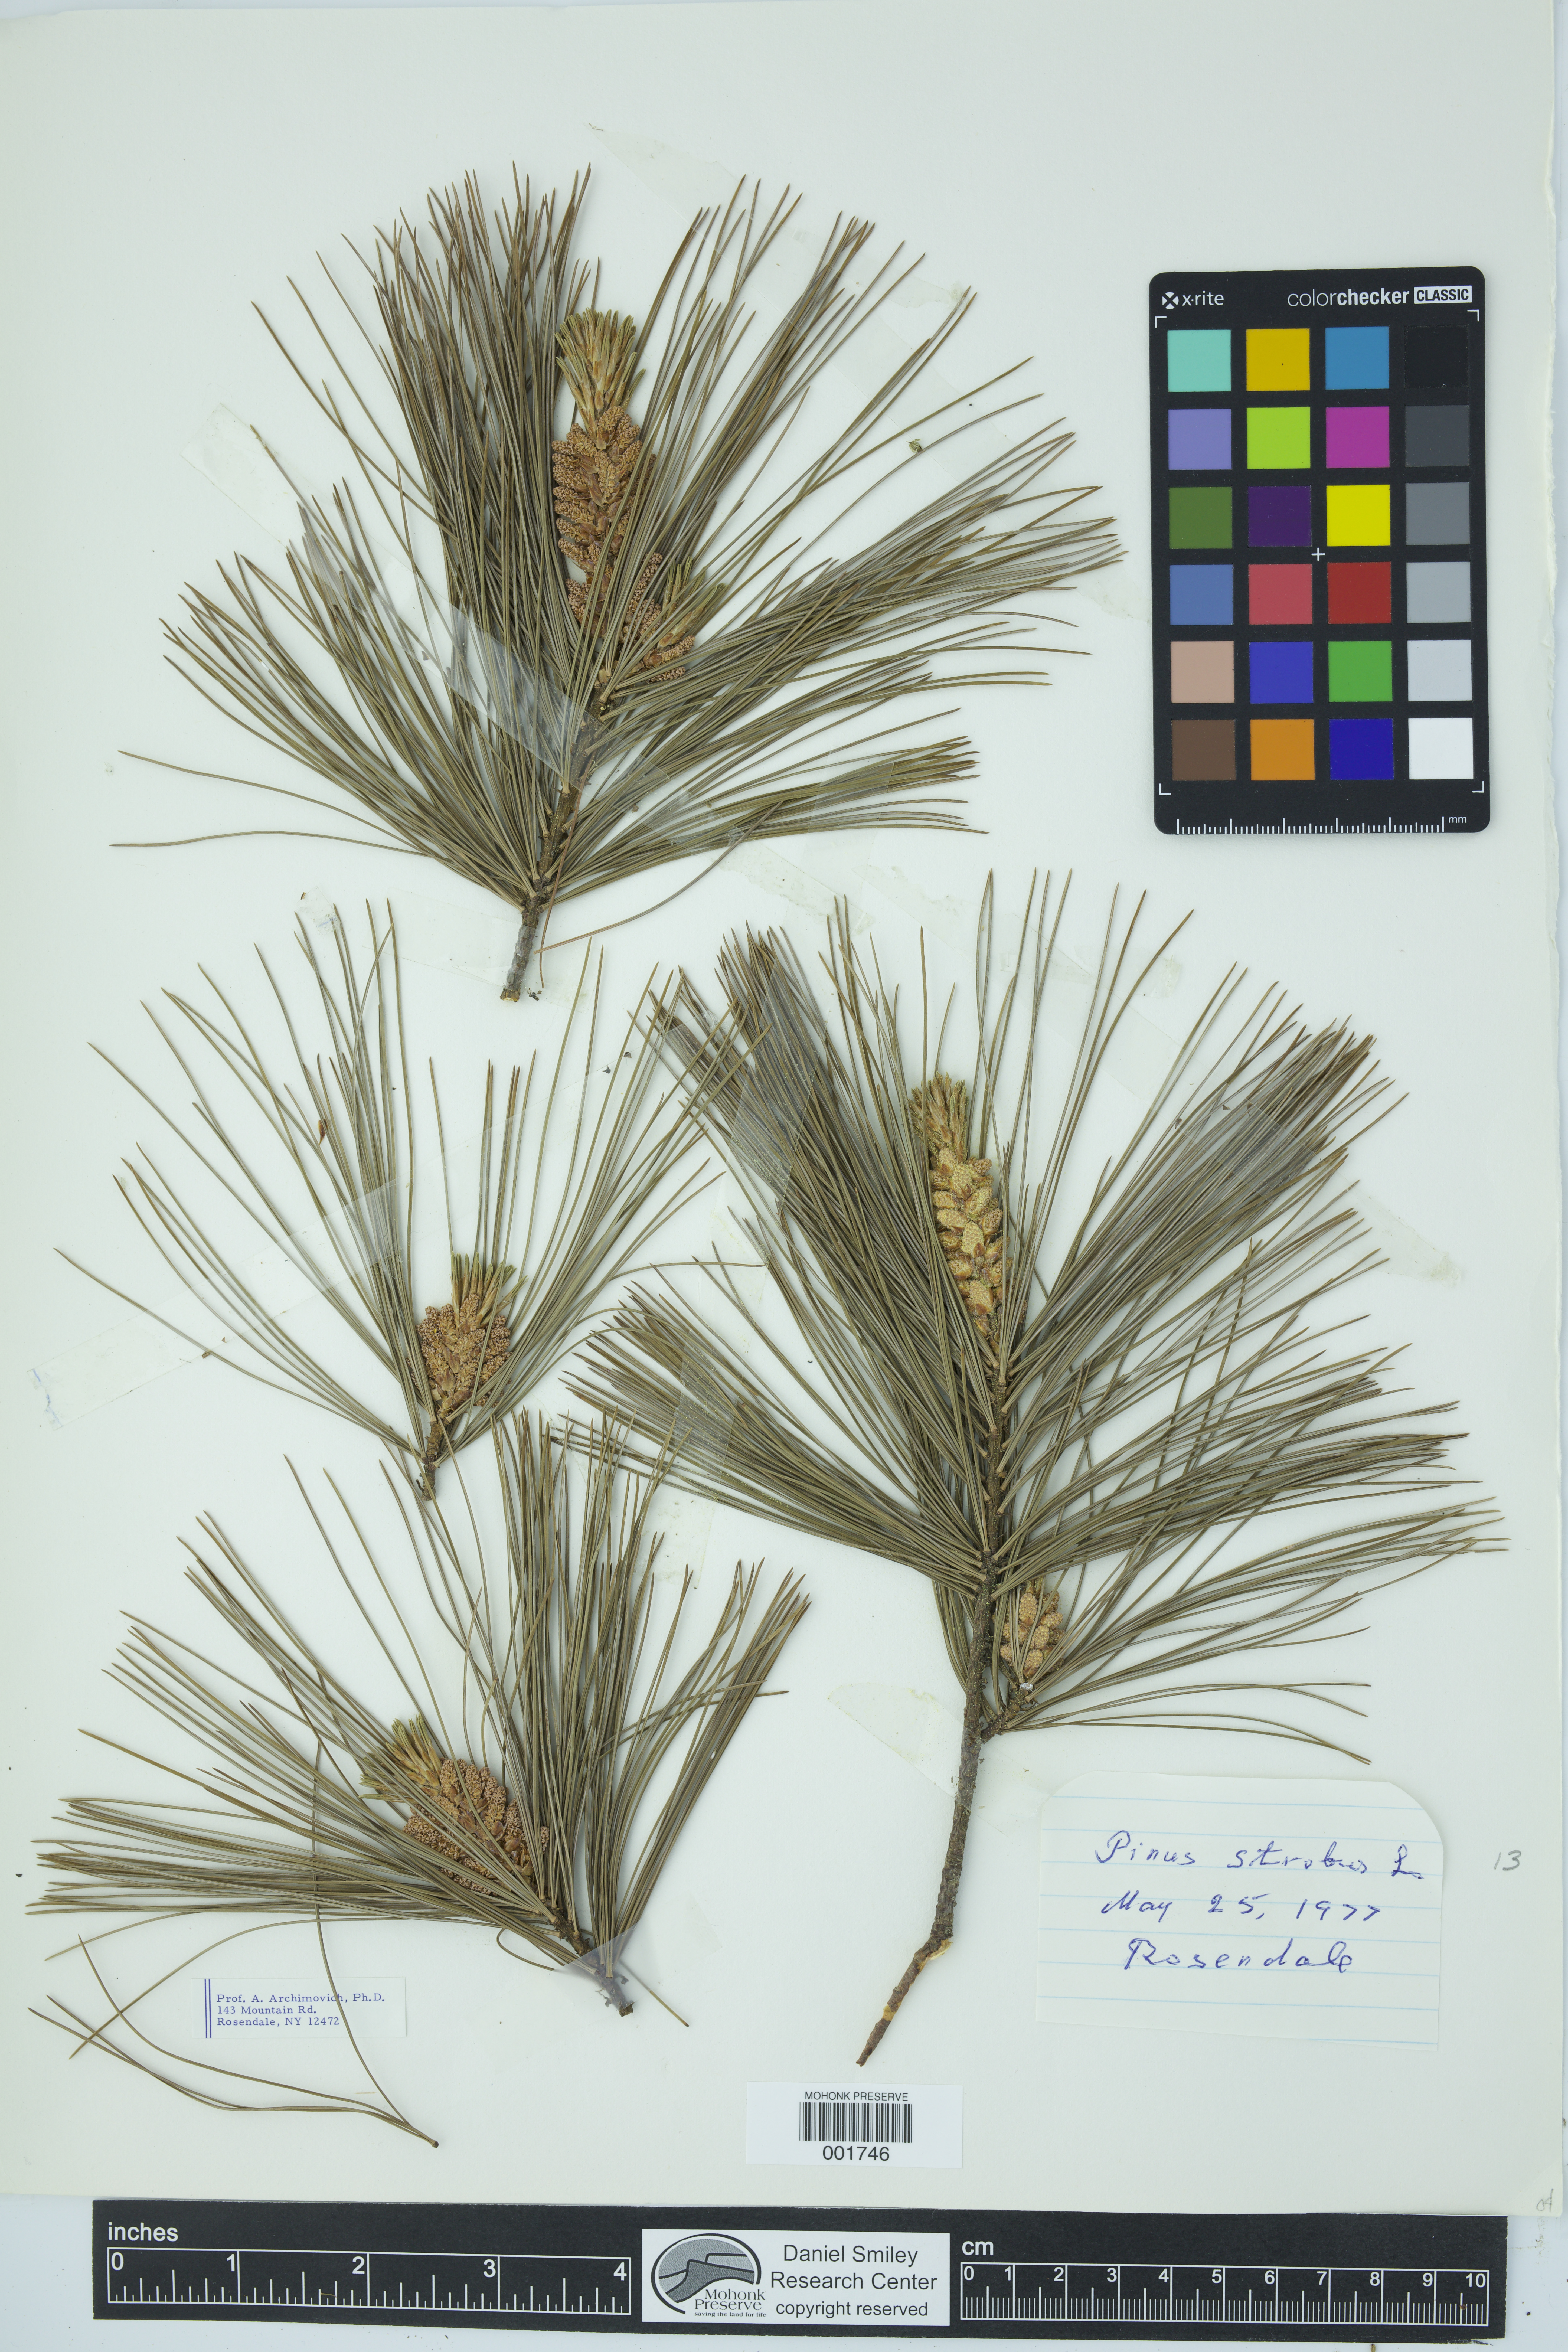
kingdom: Plantae
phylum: Tracheophyta
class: Pinopsida
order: Pinales
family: Pinaceae
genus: Pinus
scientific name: Pinus strobus
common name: Weymouth pine
